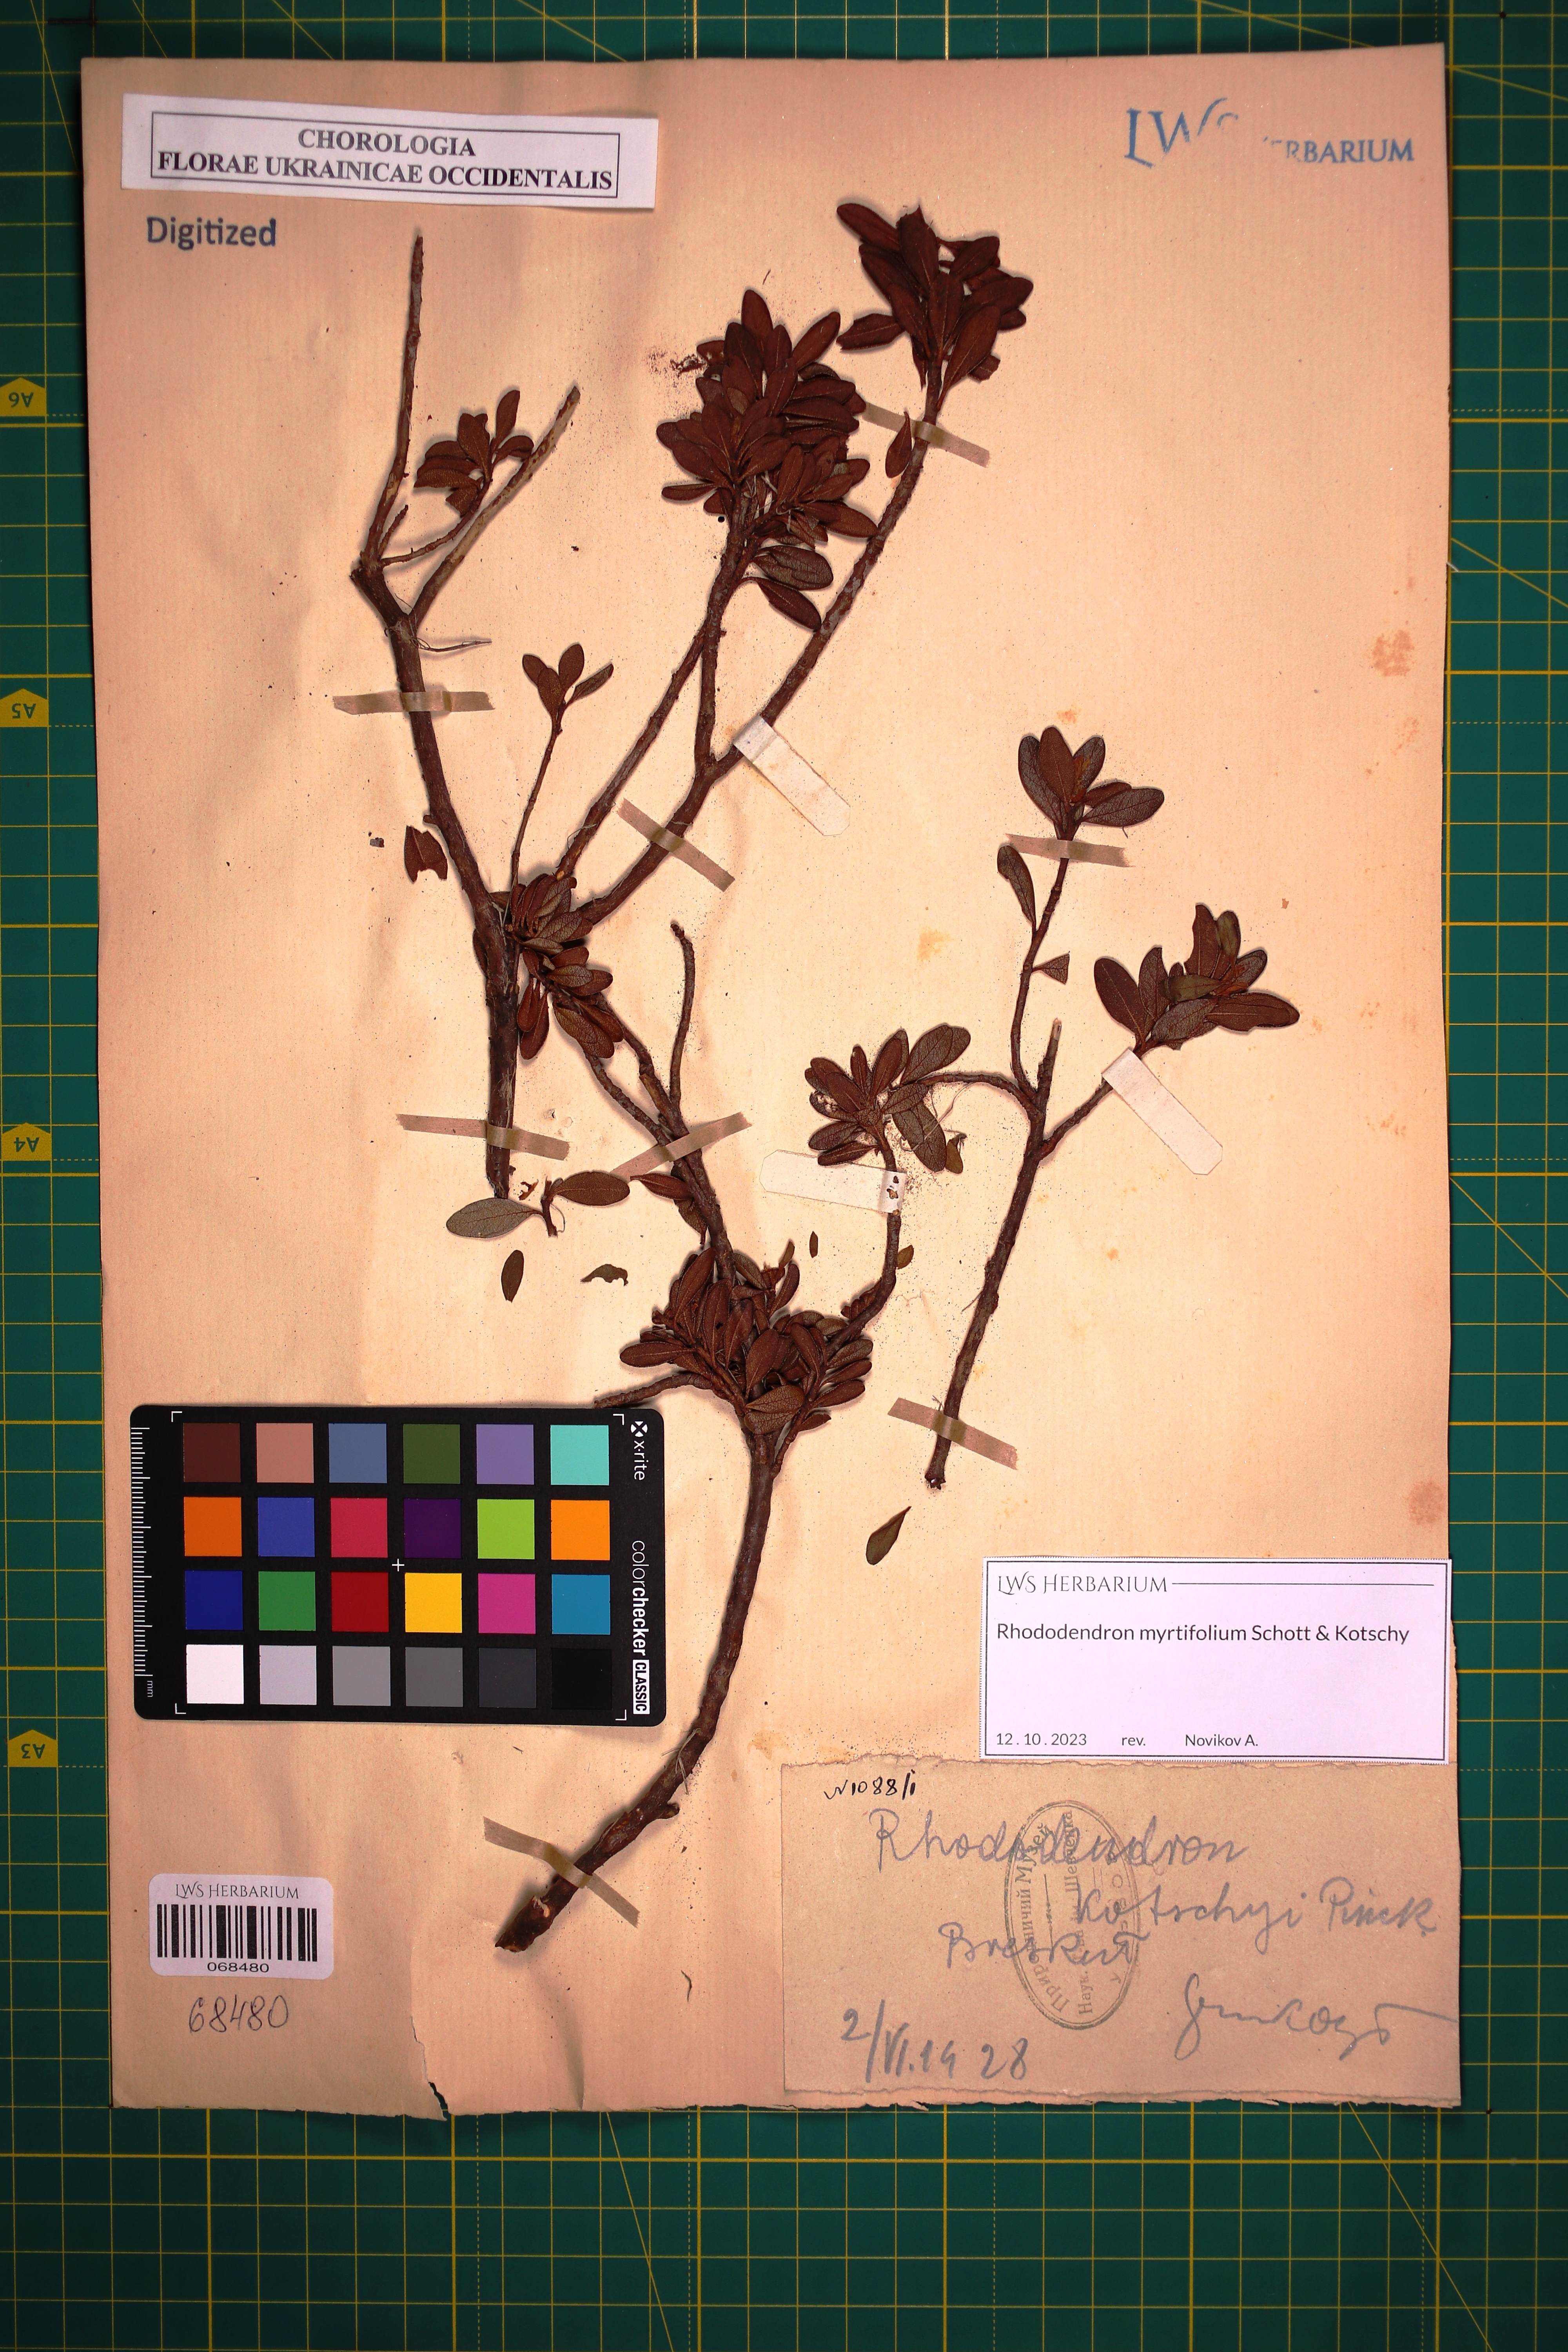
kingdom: Plantae
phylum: Tracheophyta
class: Magnoliopsida
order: Ericales
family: Ericaceae
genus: Rhododendron
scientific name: Rhododendron kotschyi
